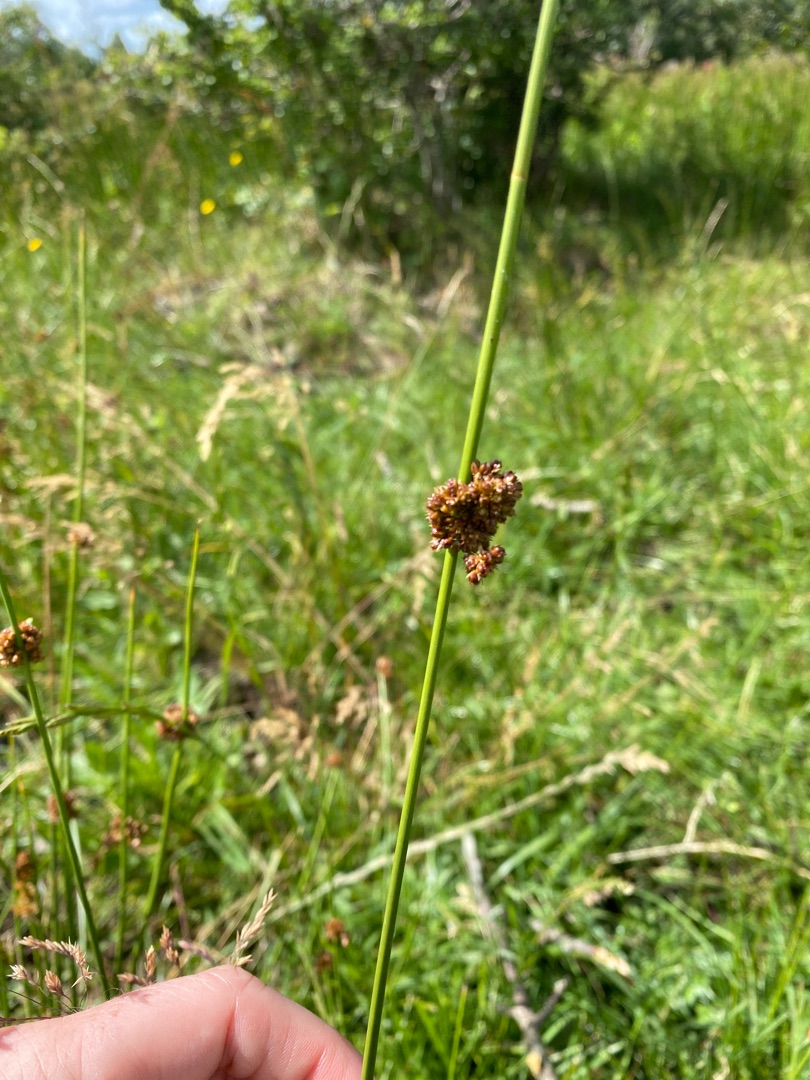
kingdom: Plantae
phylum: Tracheophyta
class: Liliopsida
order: Poales
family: Juncaceae
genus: Juncus
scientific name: Juncus effusus
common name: Lyse-siv
